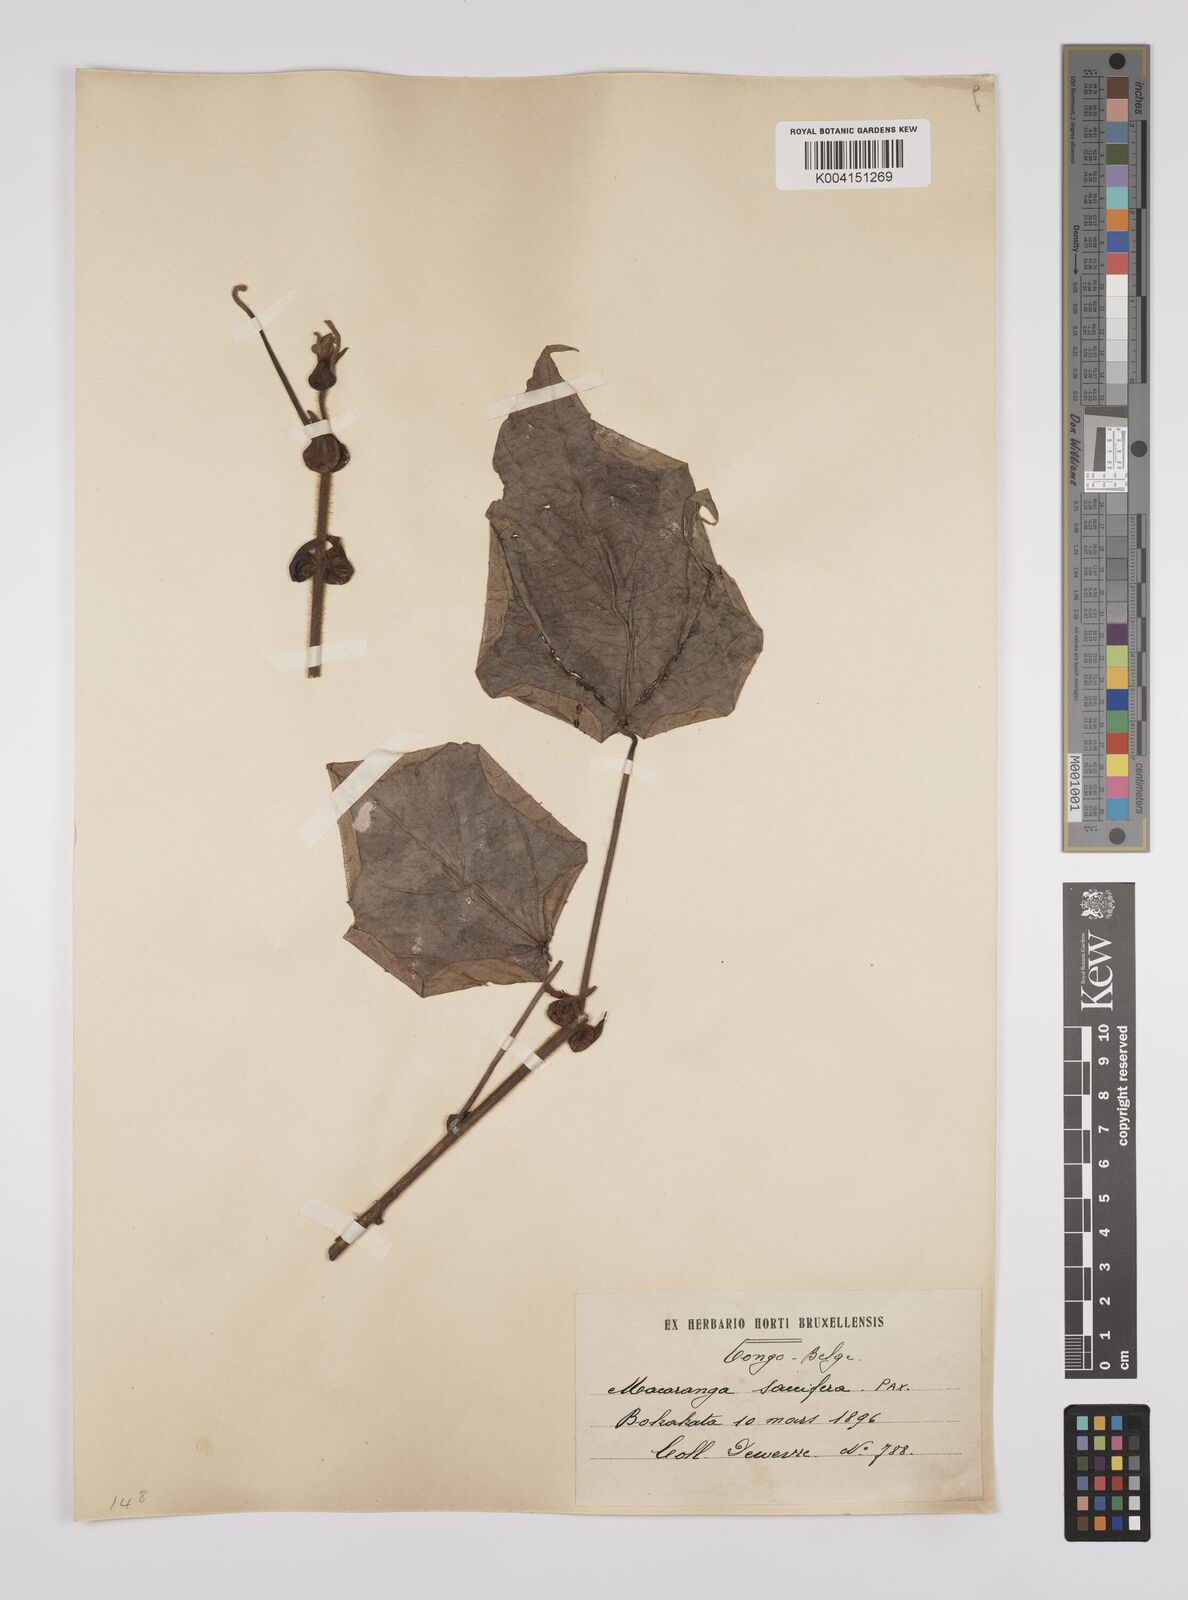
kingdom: Plantae
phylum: Tracheophyta
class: Magnoliopsida
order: Malpighiales
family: Euphorbiaceae
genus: Macaranga
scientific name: Macaranga saccifera
